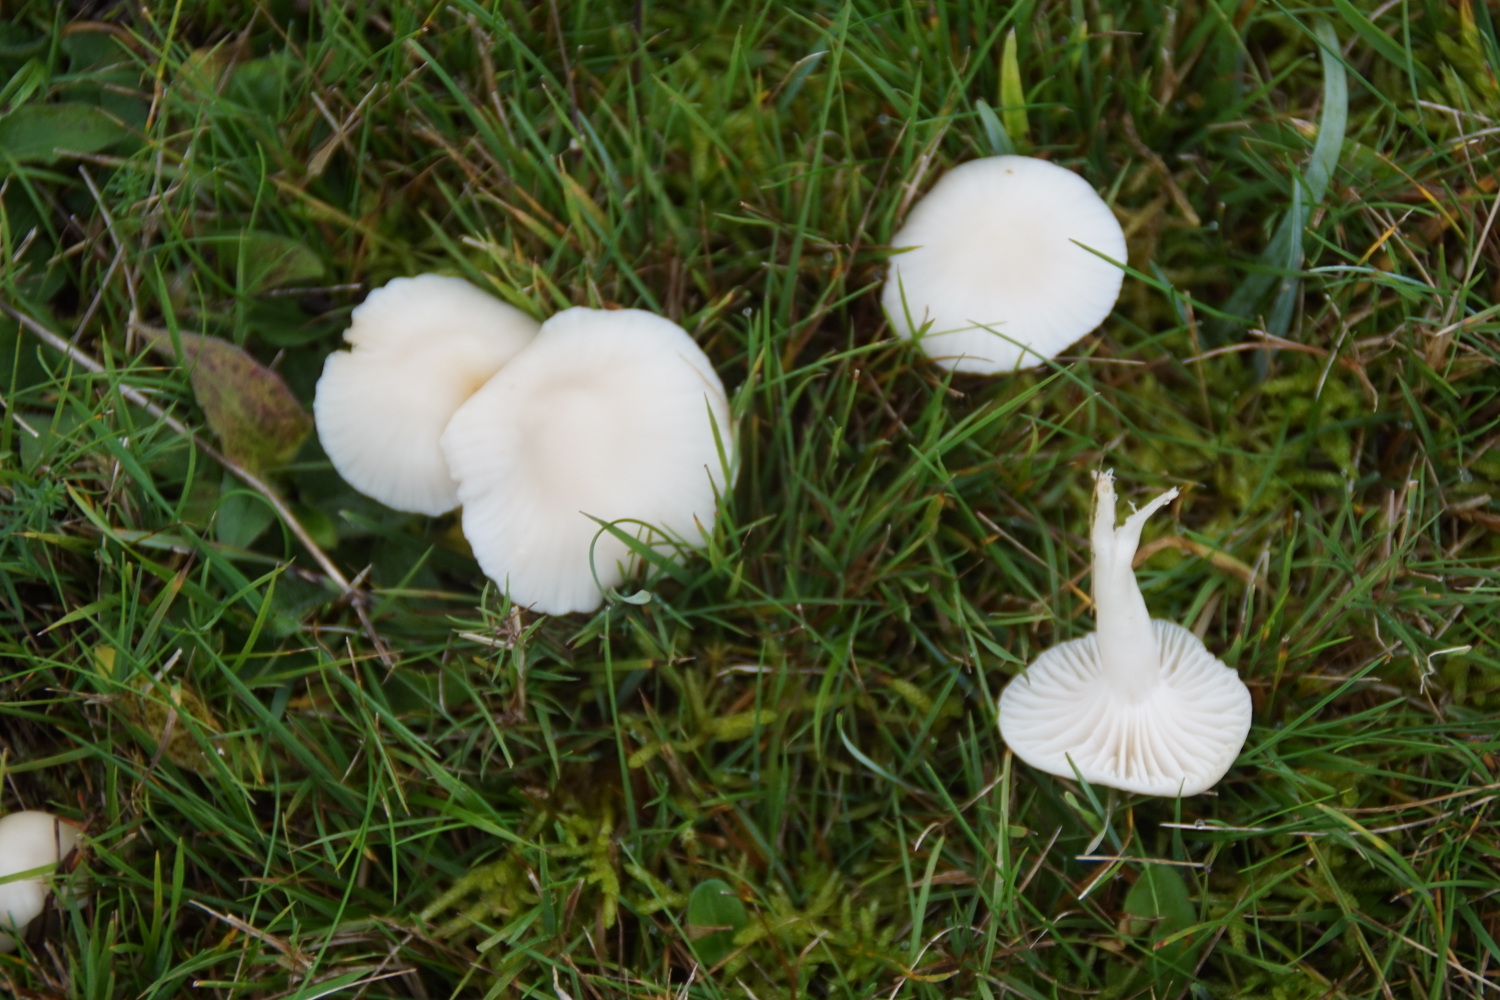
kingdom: Fungi
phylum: Basidiomycota
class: Agaricomycetes
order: Agaricales
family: Hygrophoraceae
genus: Cuphophyllus
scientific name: Cuphophyllus virgineus
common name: snehvid vokshat
